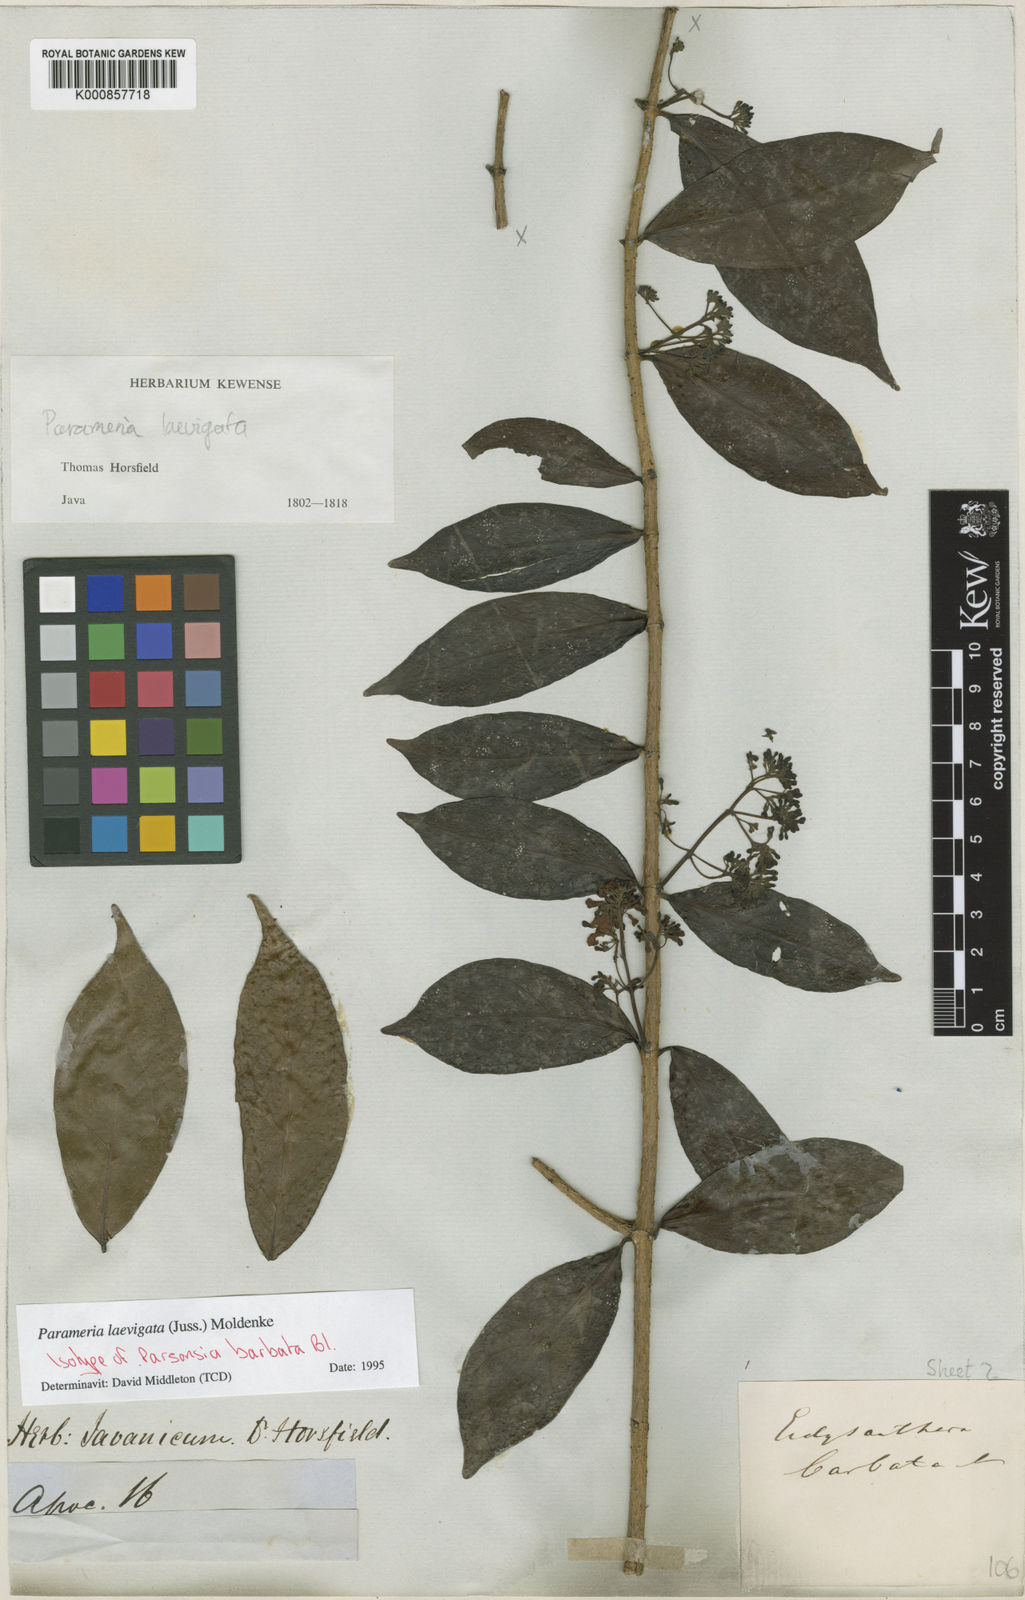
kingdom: Plantae
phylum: Tracheophyta
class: Magnoliopsida
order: Gentianales
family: Apocynaceae
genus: Urceola
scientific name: Urceola laevigata
